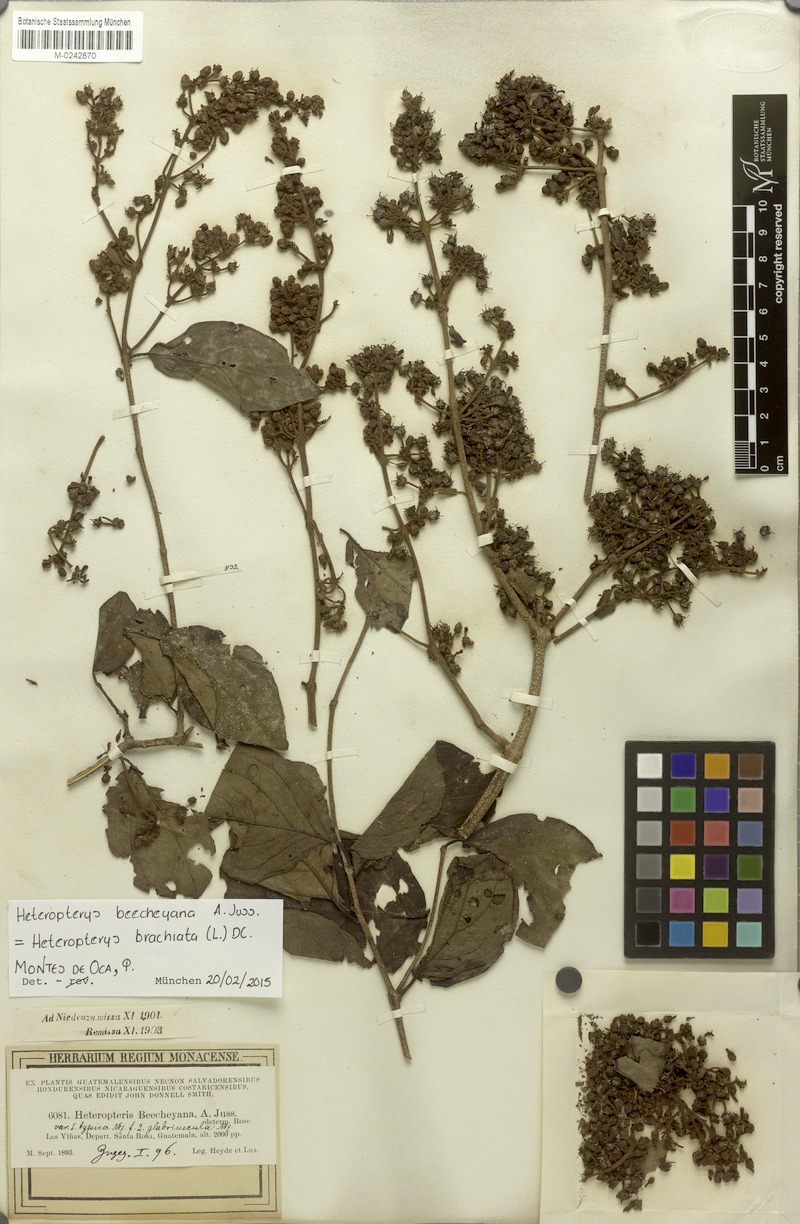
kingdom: Plantae
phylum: Tracheophyta
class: Magnoliopsida
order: Malpighiales
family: Malpighiaceae
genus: Heteropterys
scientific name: Heteropterys brachiata
